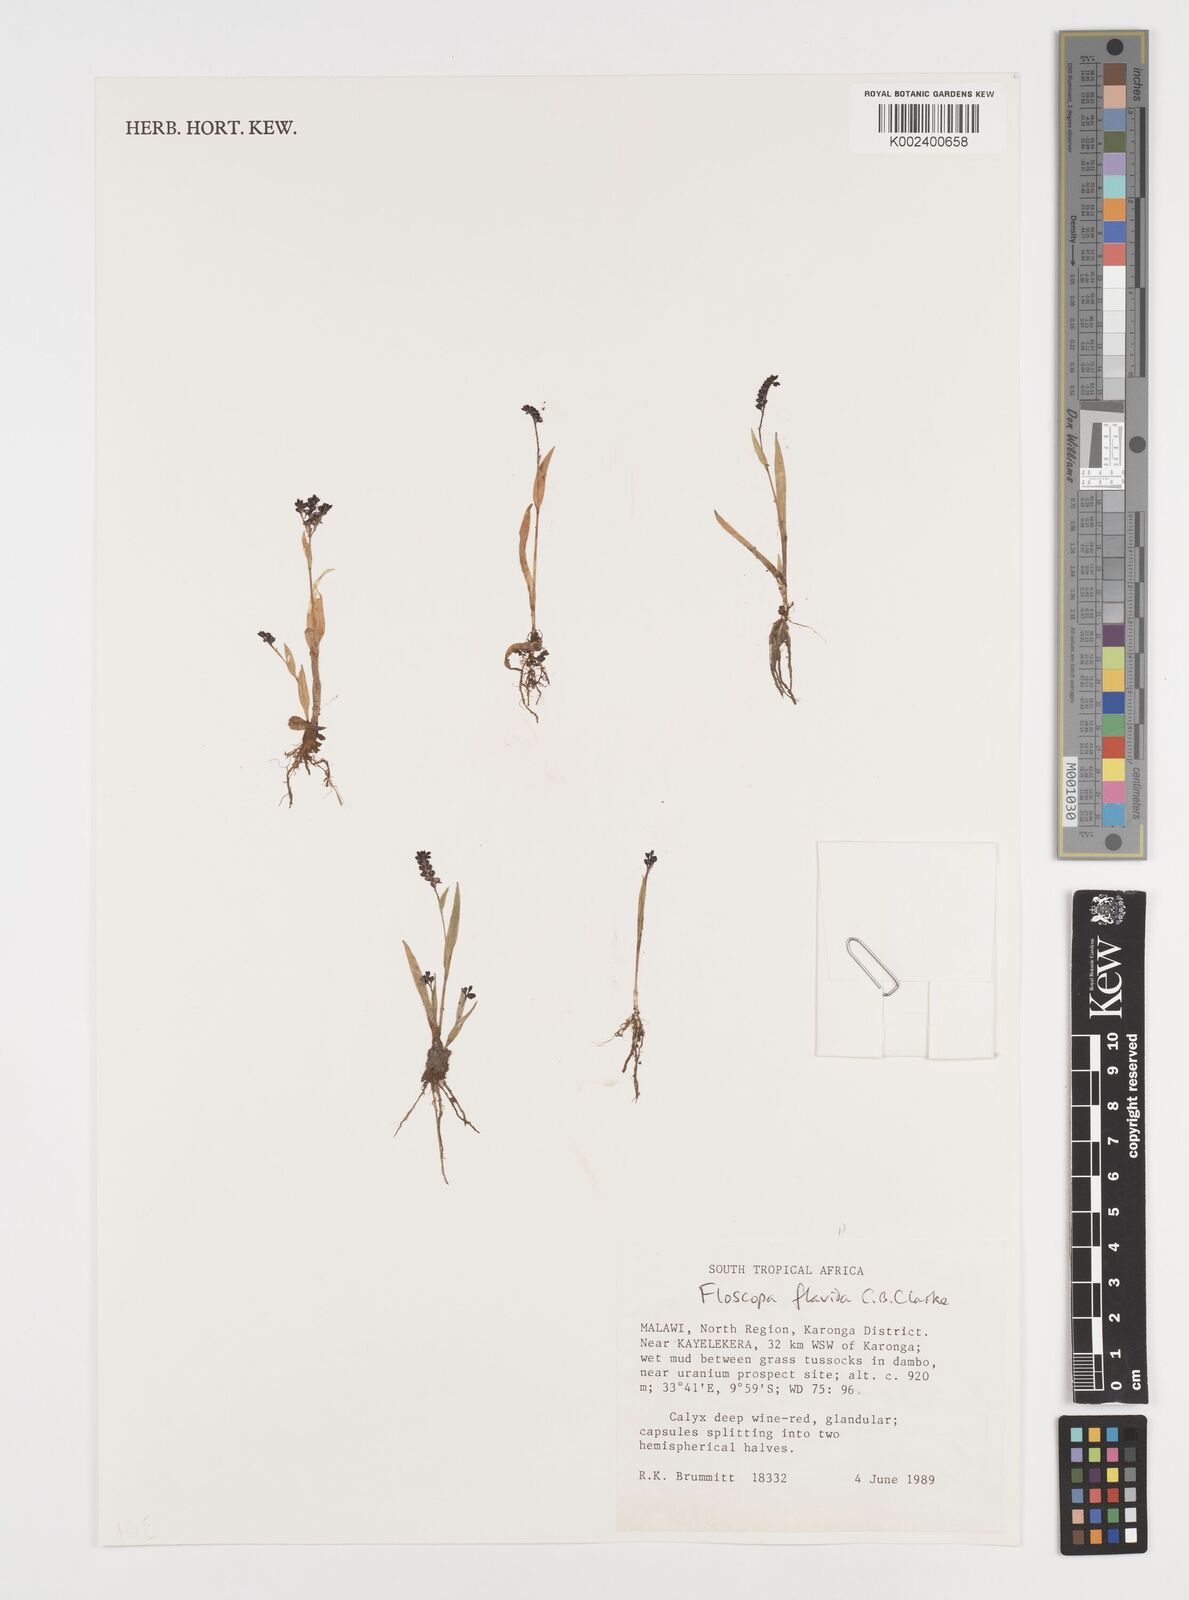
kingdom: Plantae
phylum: Tracheophyta
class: Liliopsida
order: Commelinales
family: Commelinaceae
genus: Floscopa
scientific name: Floscopa flavida
